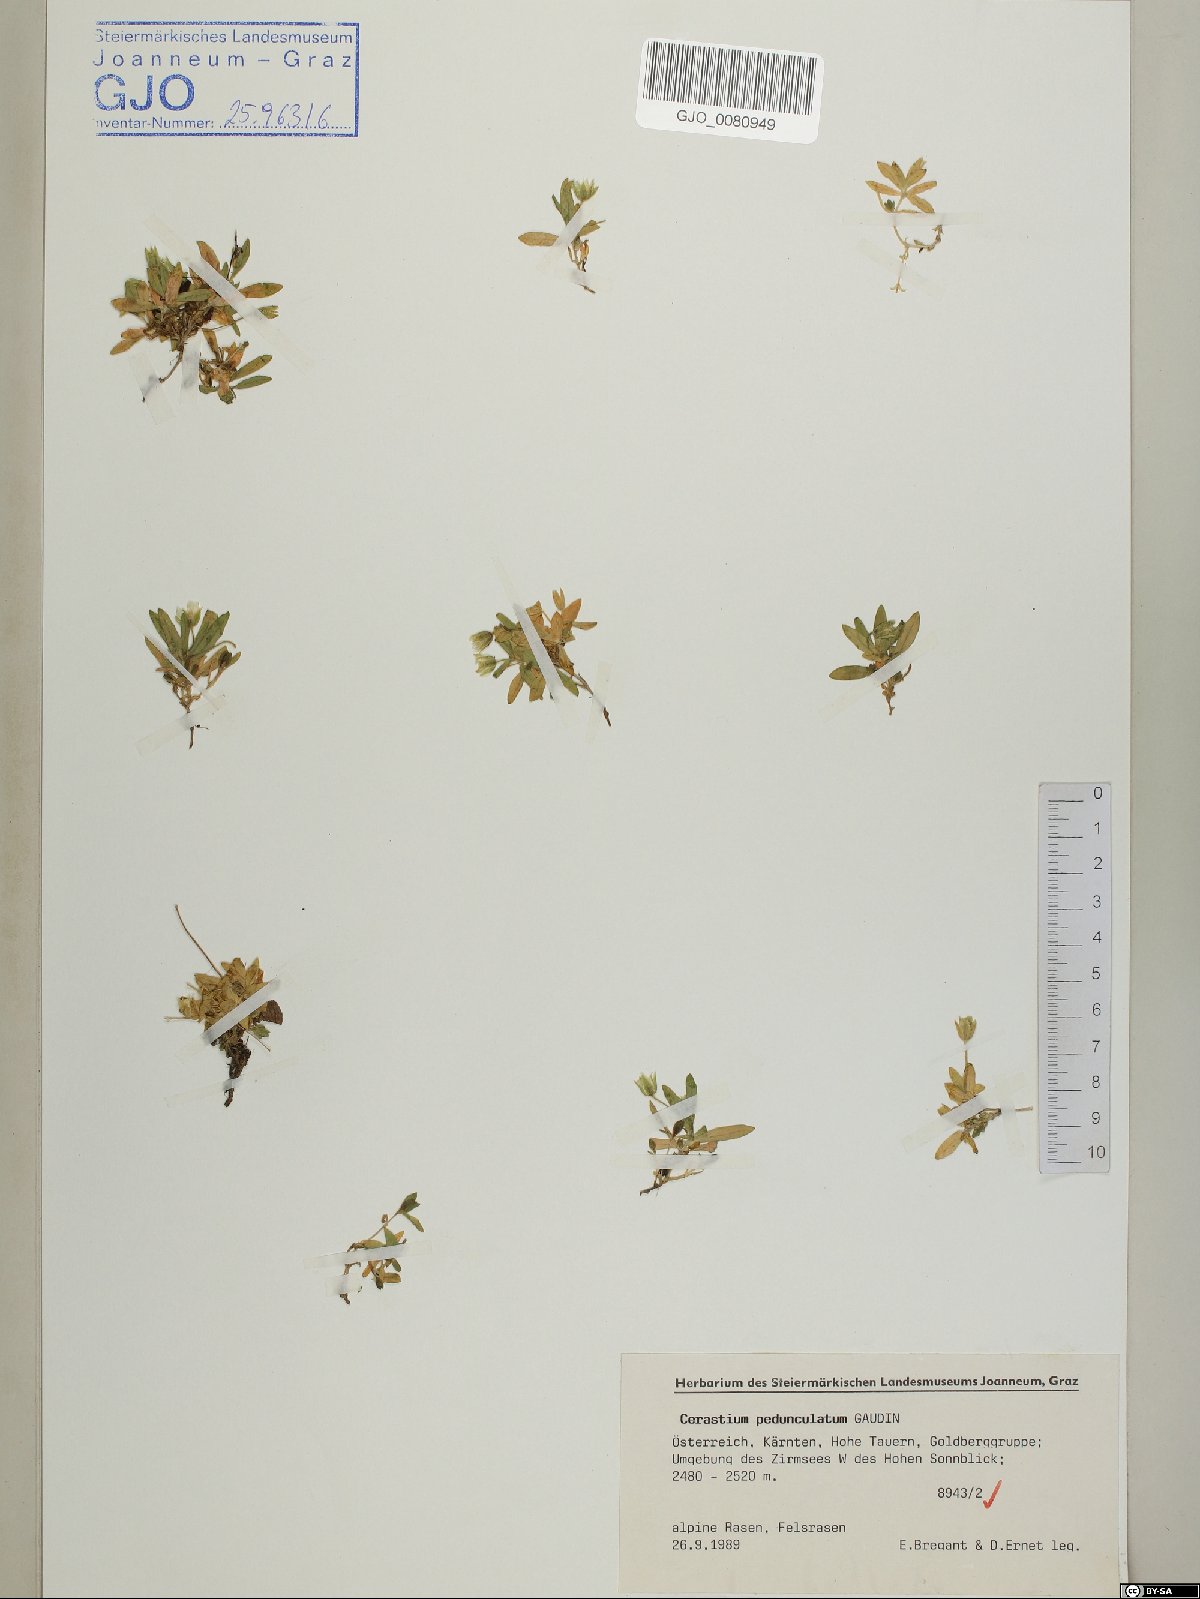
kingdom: Plantae
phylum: Tracheophyta
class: Magnoliopsida
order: Caryophyllales
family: Caryophyllaceae
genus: Cerastium
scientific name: Cerastium pedunculatum
